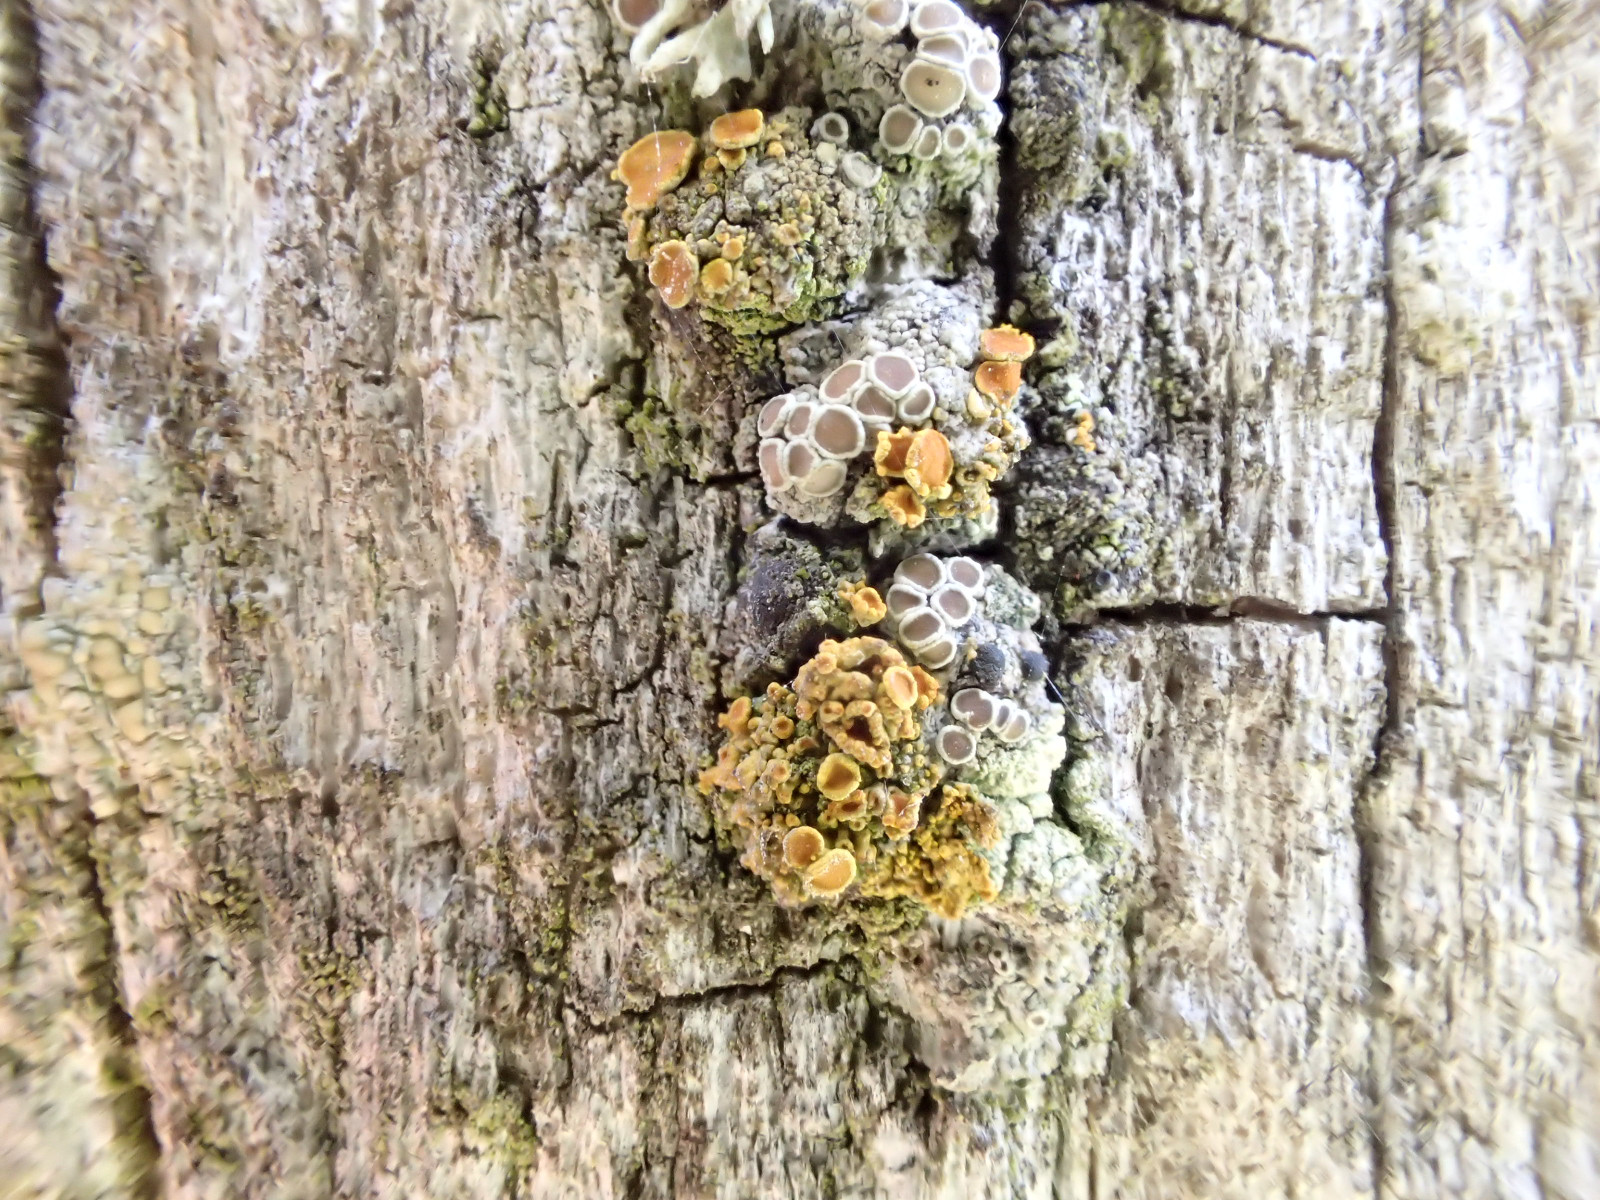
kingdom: Fungi
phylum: Ascomycota
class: Lecanoromycetes
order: Teloschistales
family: Teloschistaceae
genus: Polycauliona
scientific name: Polycauliona polycarpa
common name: mangefrugtet orangelav
